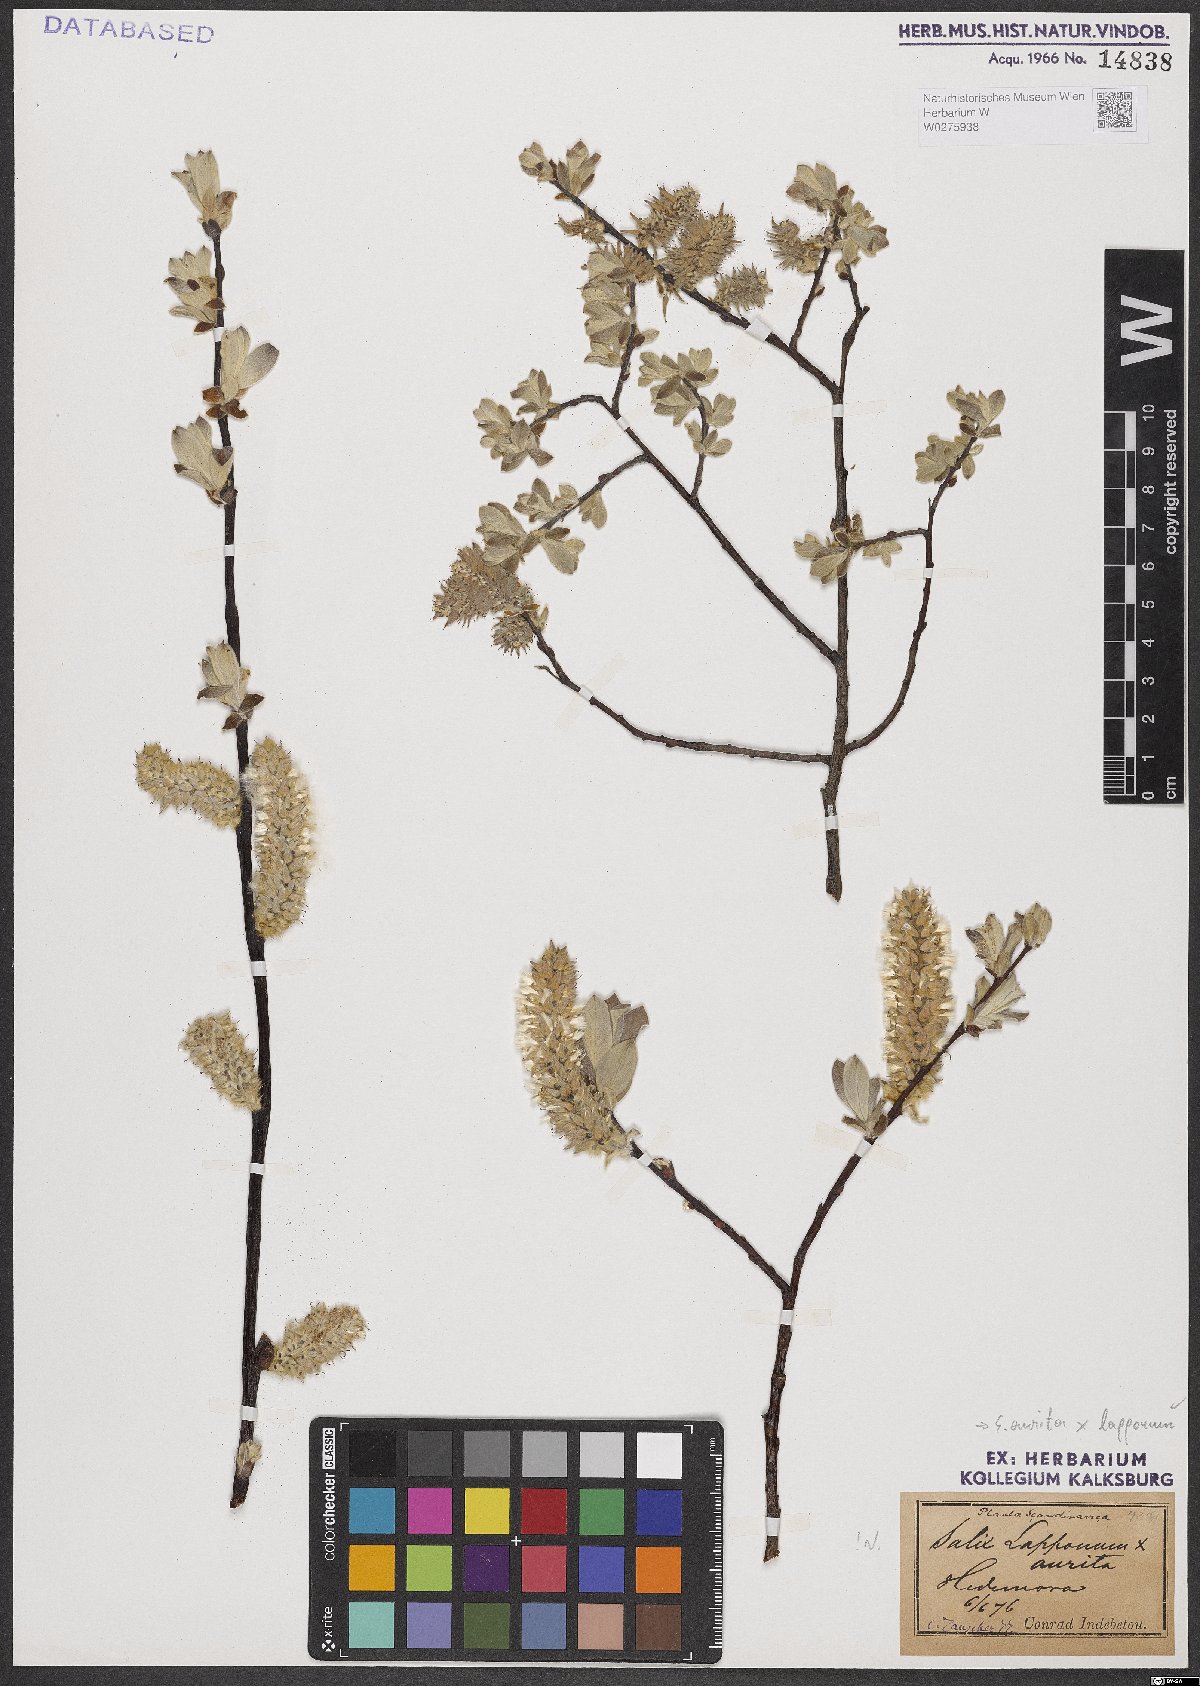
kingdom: Plantae
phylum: Tracheophyta
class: Magnoliopsida
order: Malpighiales
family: Salicaceae
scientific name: Salicaceae
